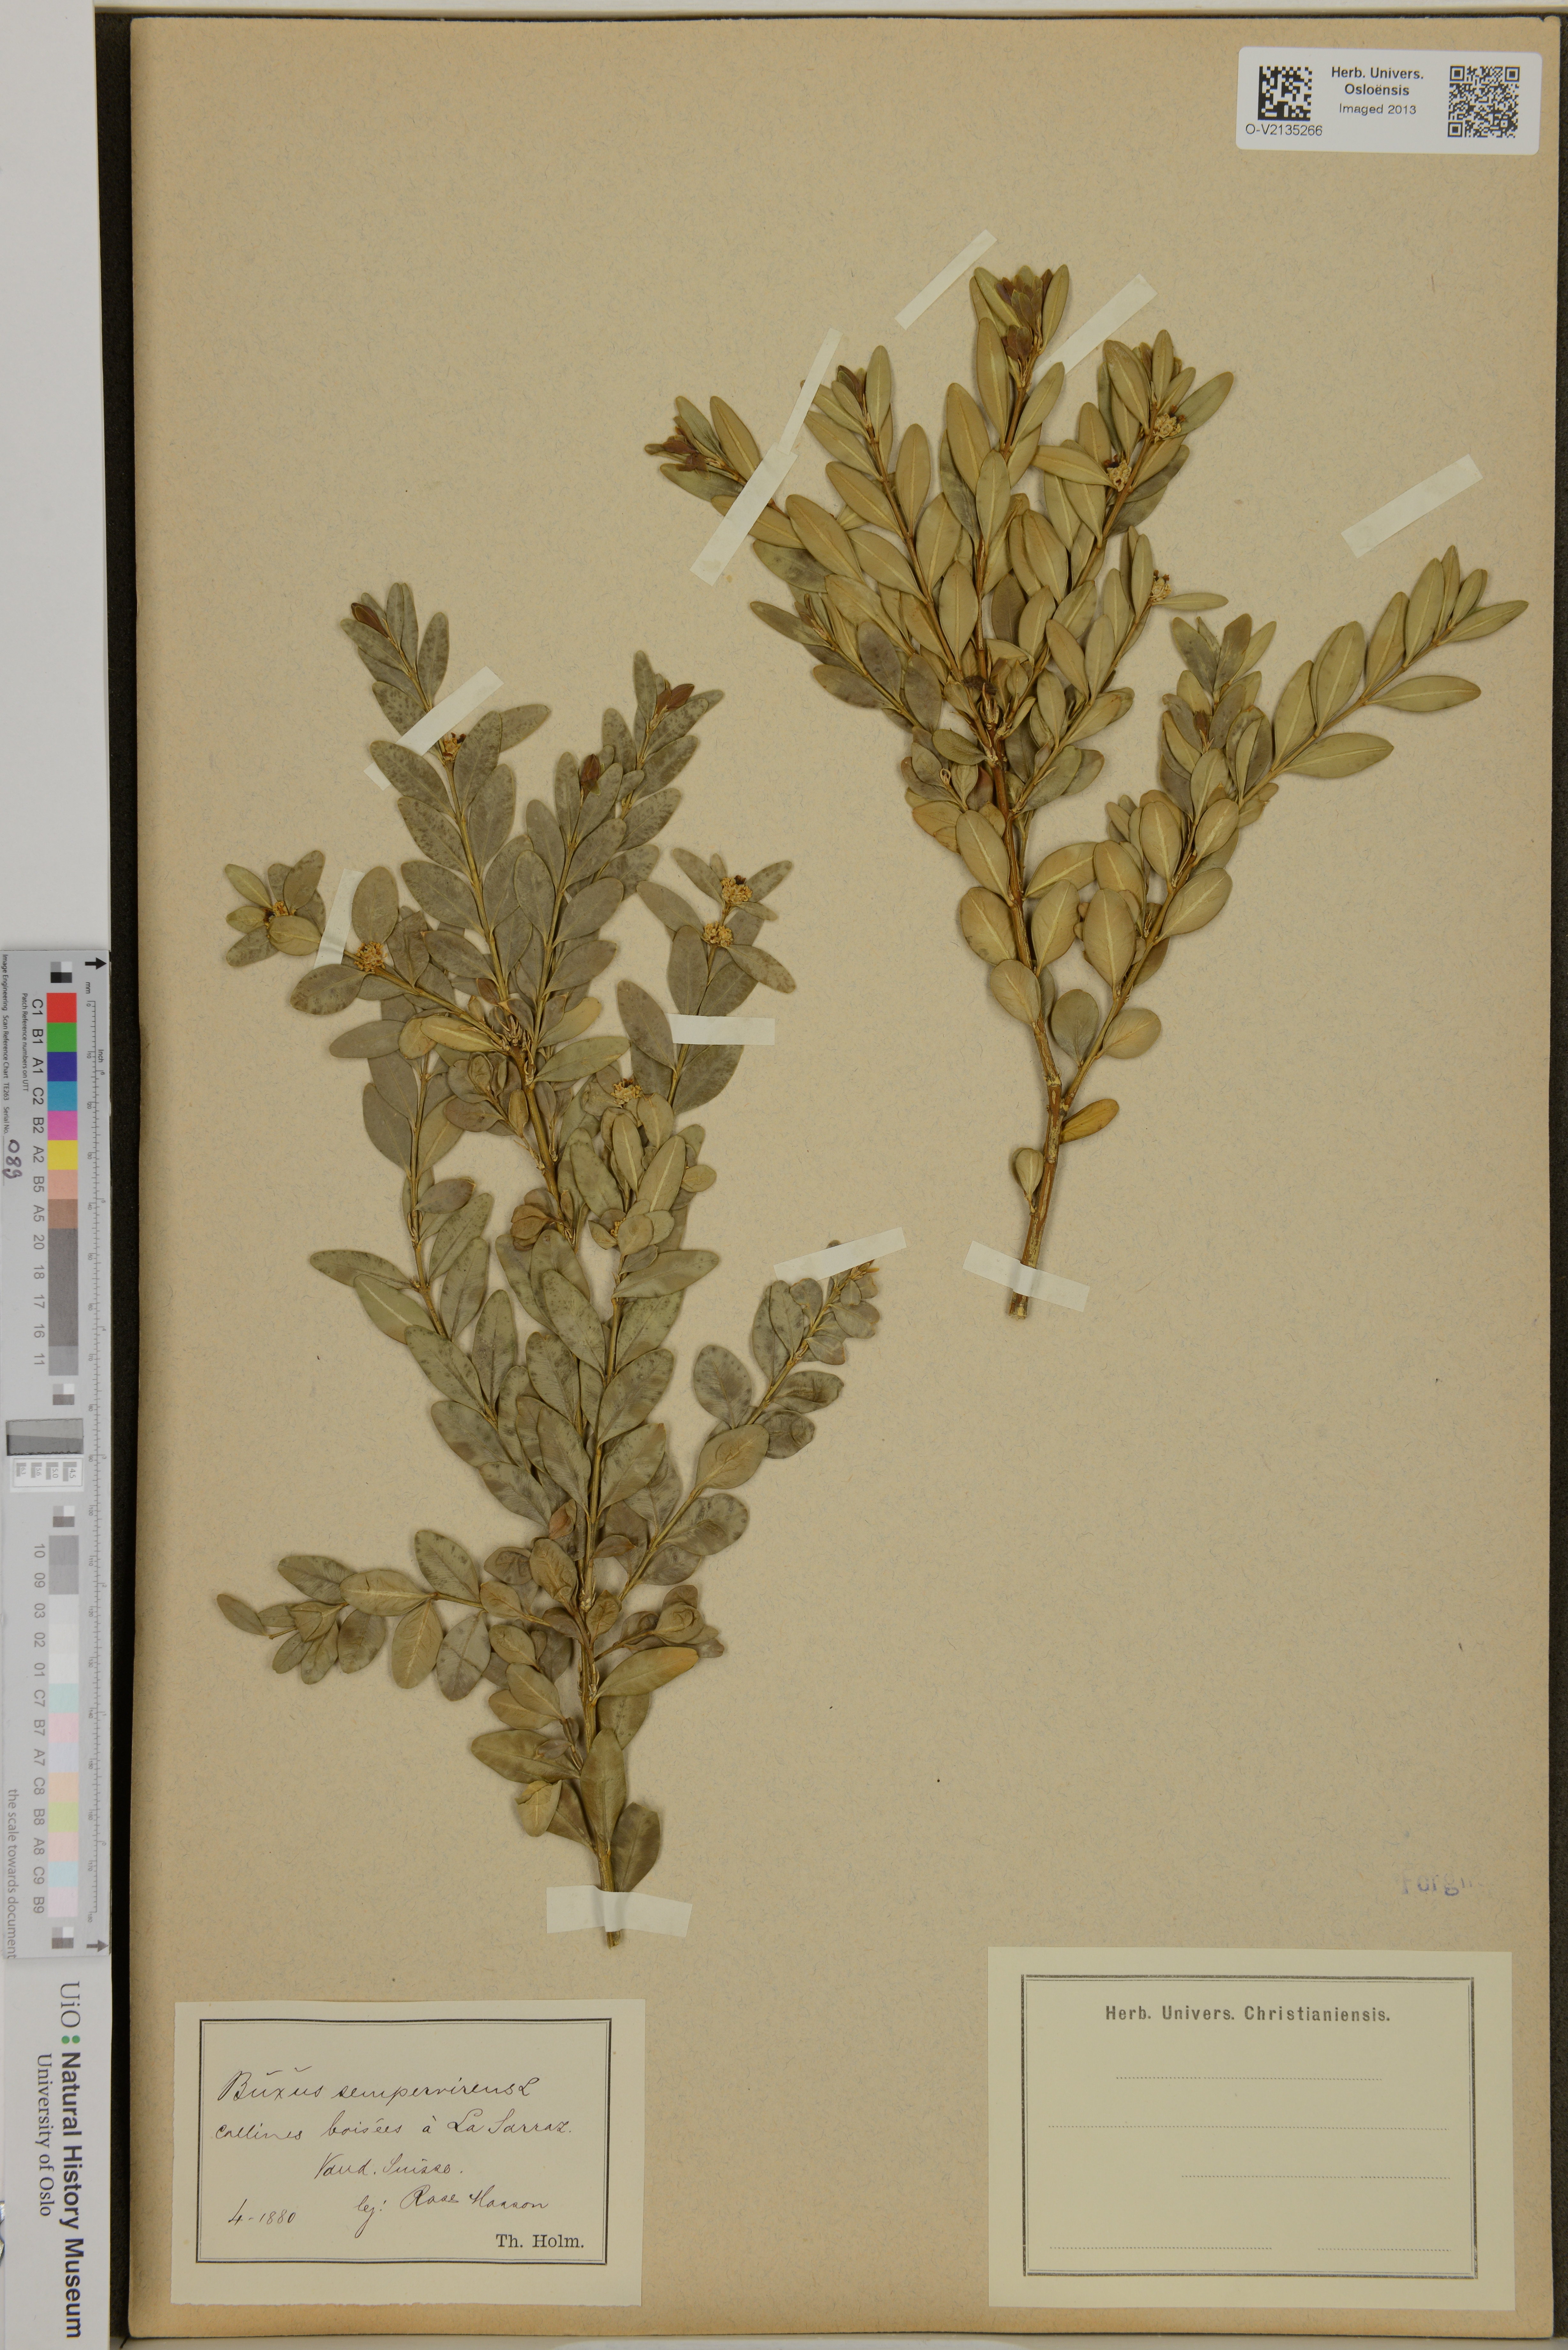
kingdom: Plantae
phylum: Tracheophyta
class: Magnoliopsida
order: Buxales
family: Buxaceae
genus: Buxus
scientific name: Buxus sempervirens
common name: Box
